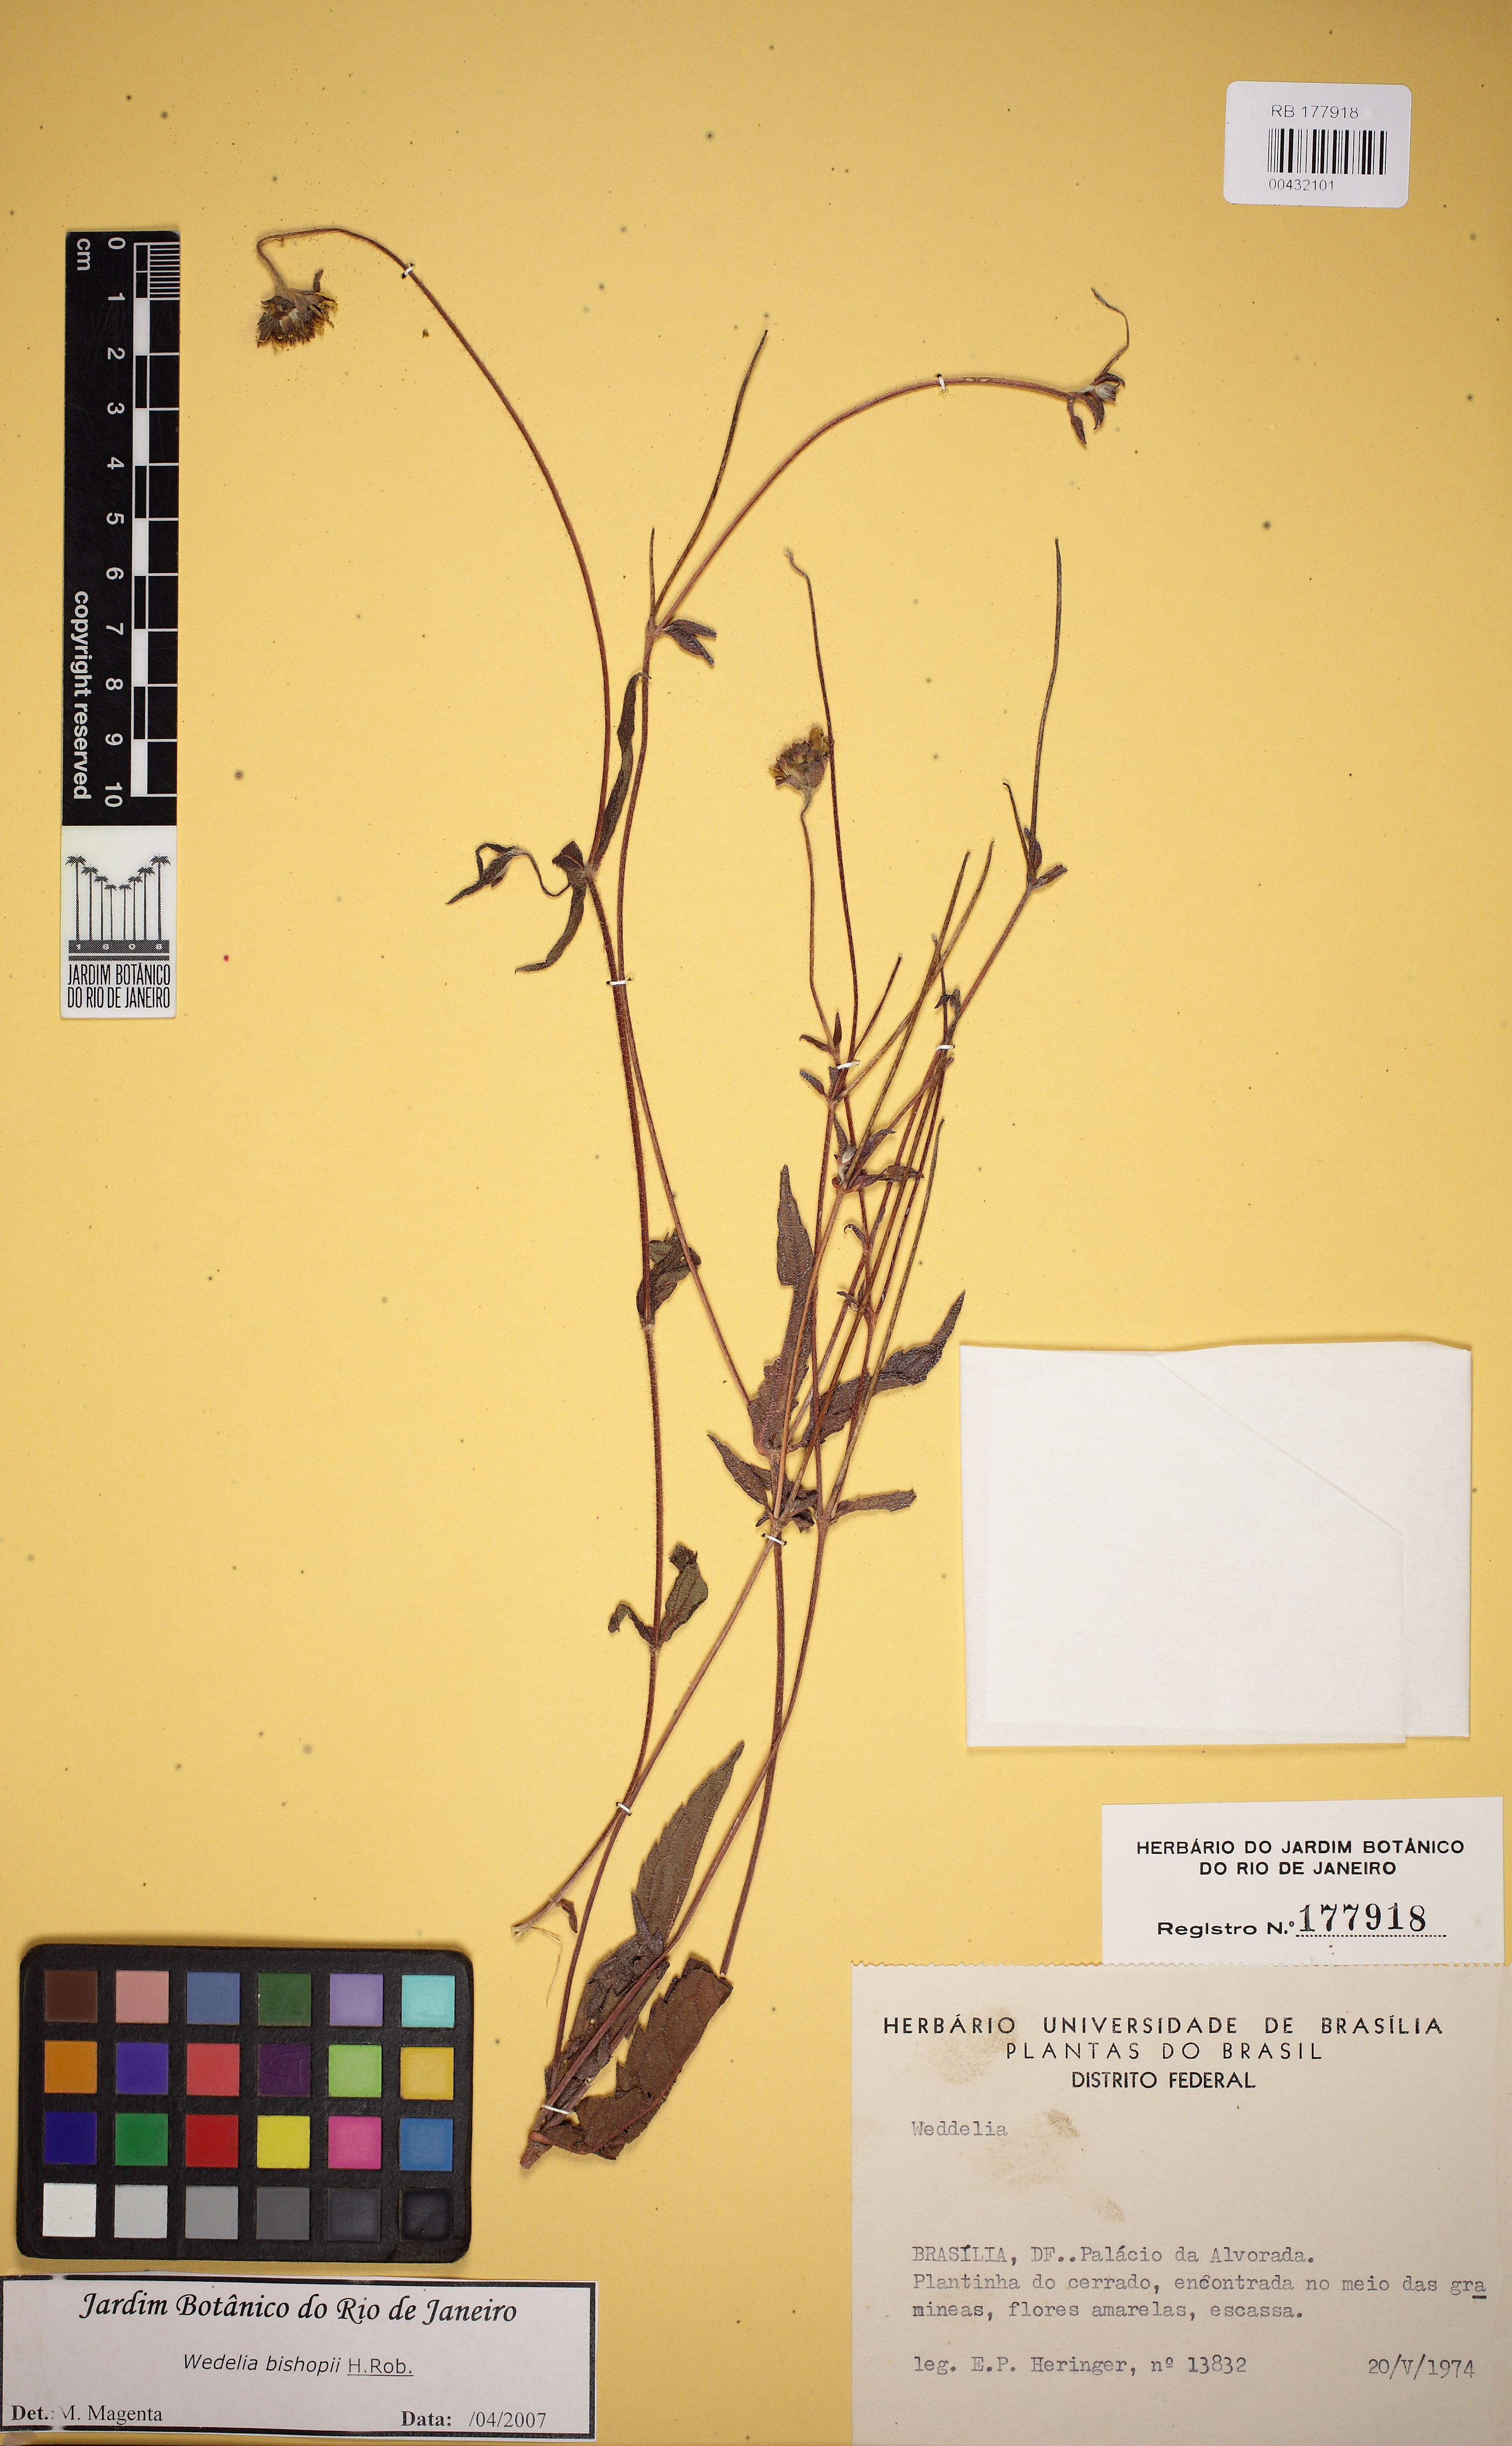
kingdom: Plantae
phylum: Tracheophyta
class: Magnoliopsida
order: Asterales
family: Asteraceae
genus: Wedelia
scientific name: Wedelia bishopii
